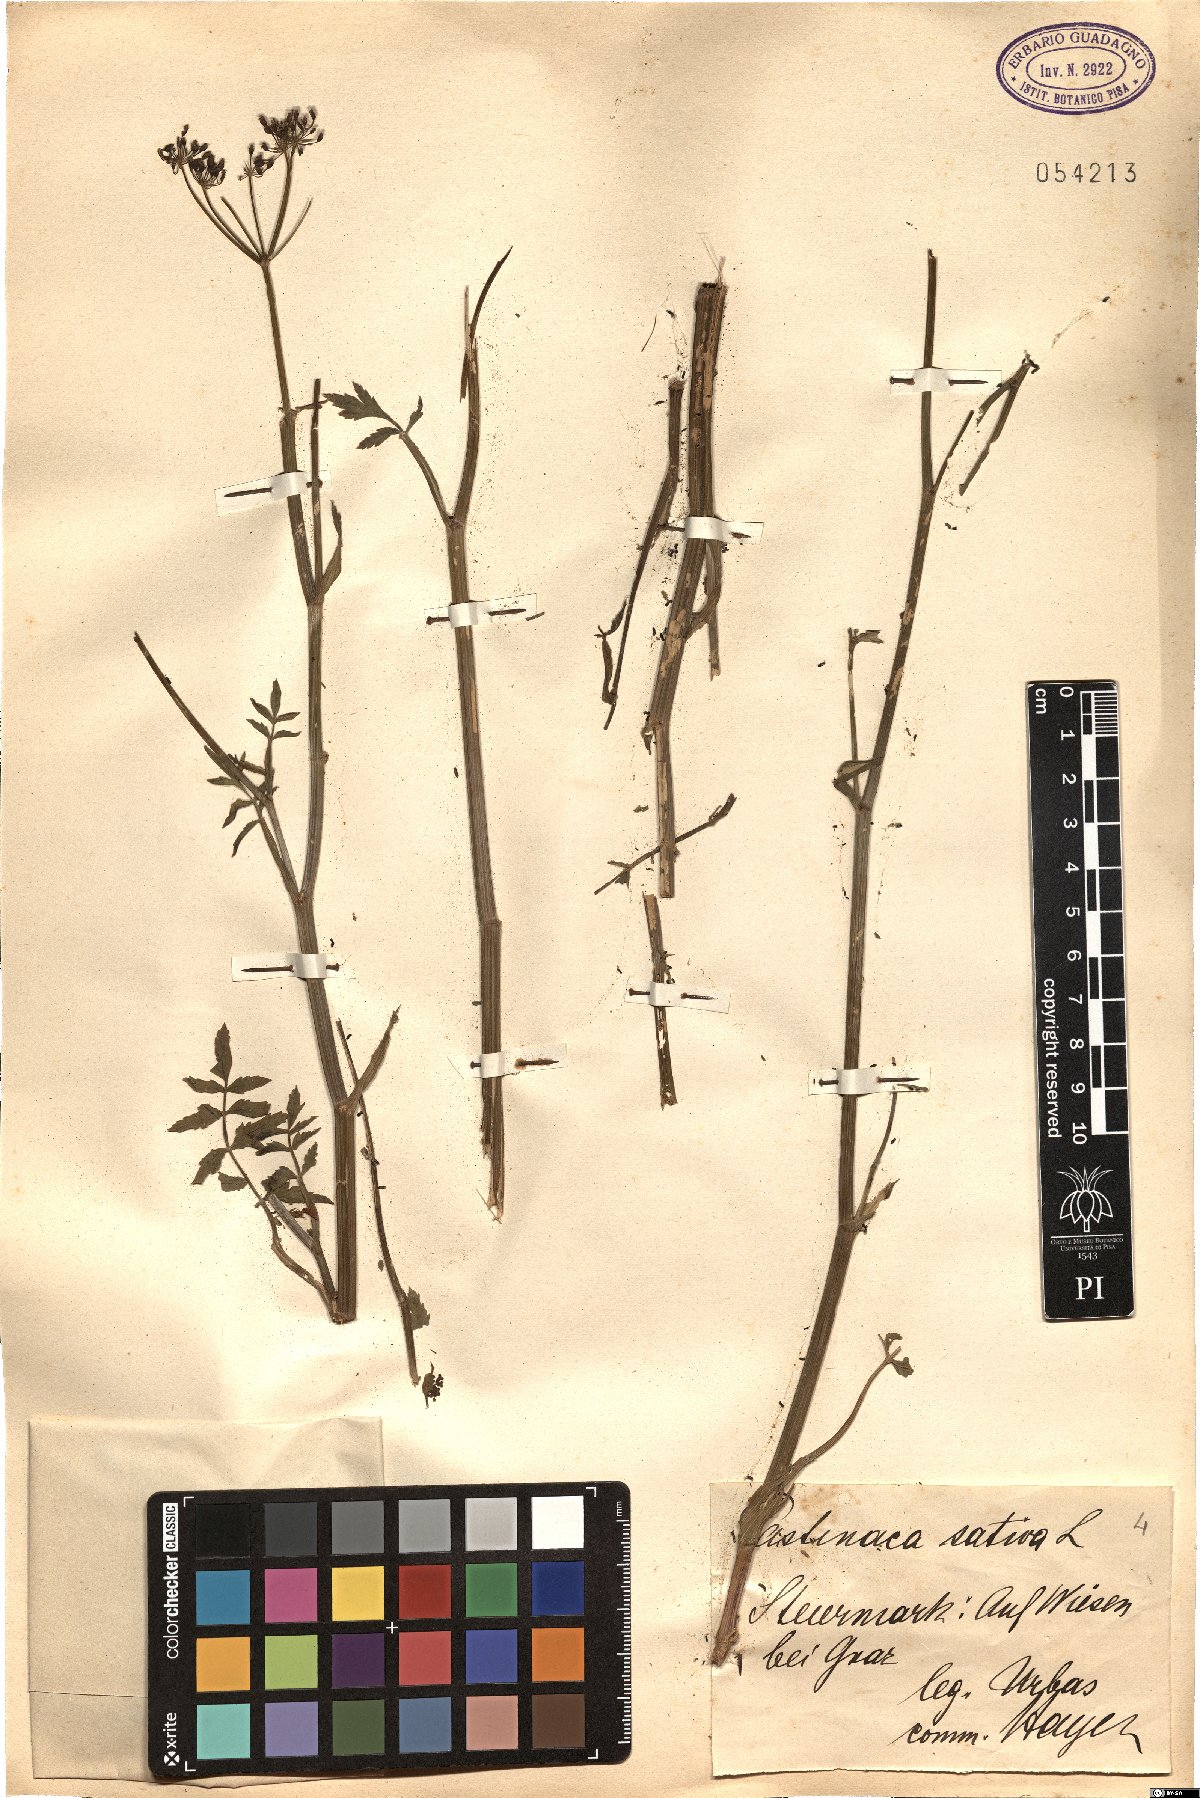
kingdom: Plantae
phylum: Tracheophyta
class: Magnoliopsida
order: Apiales
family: Apiaceae
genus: Pastinaca
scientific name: Pastinaca sativa
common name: Wild parsnip
